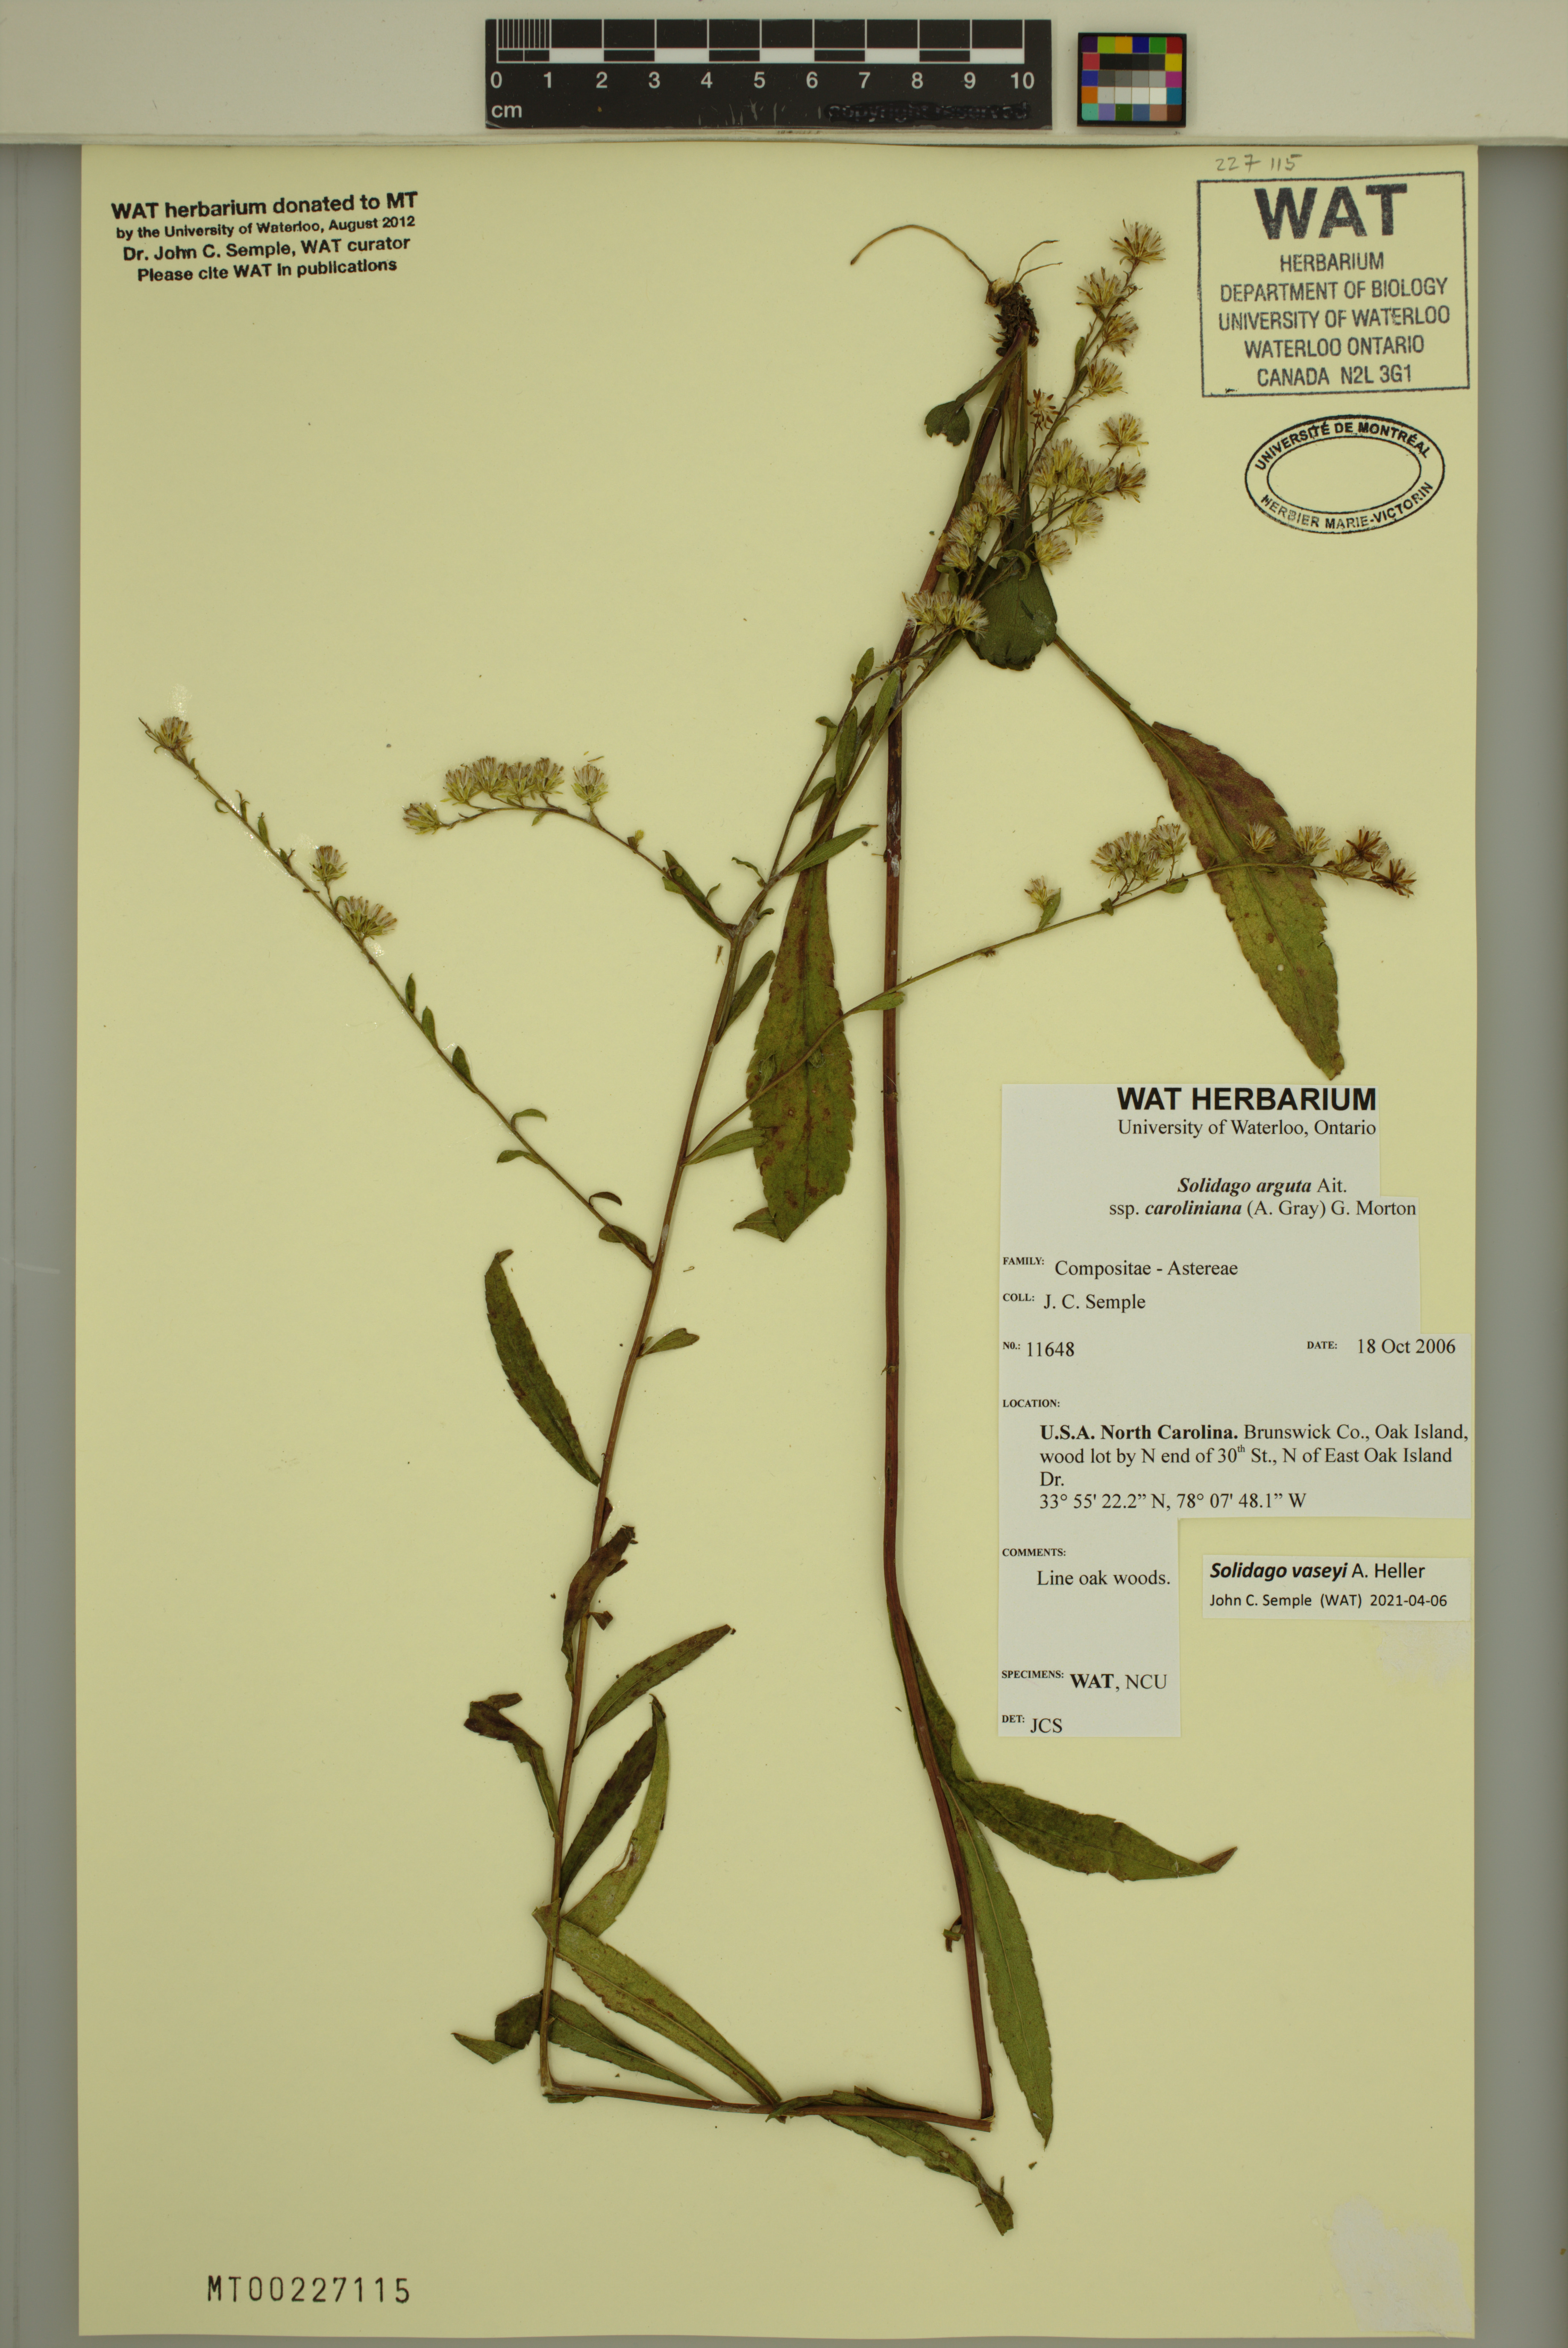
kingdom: Plantae
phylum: Tracheophyta
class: Magnoliopsida
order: Asterales
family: Asteraceae
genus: Solidago
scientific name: Solidago vaseyi
